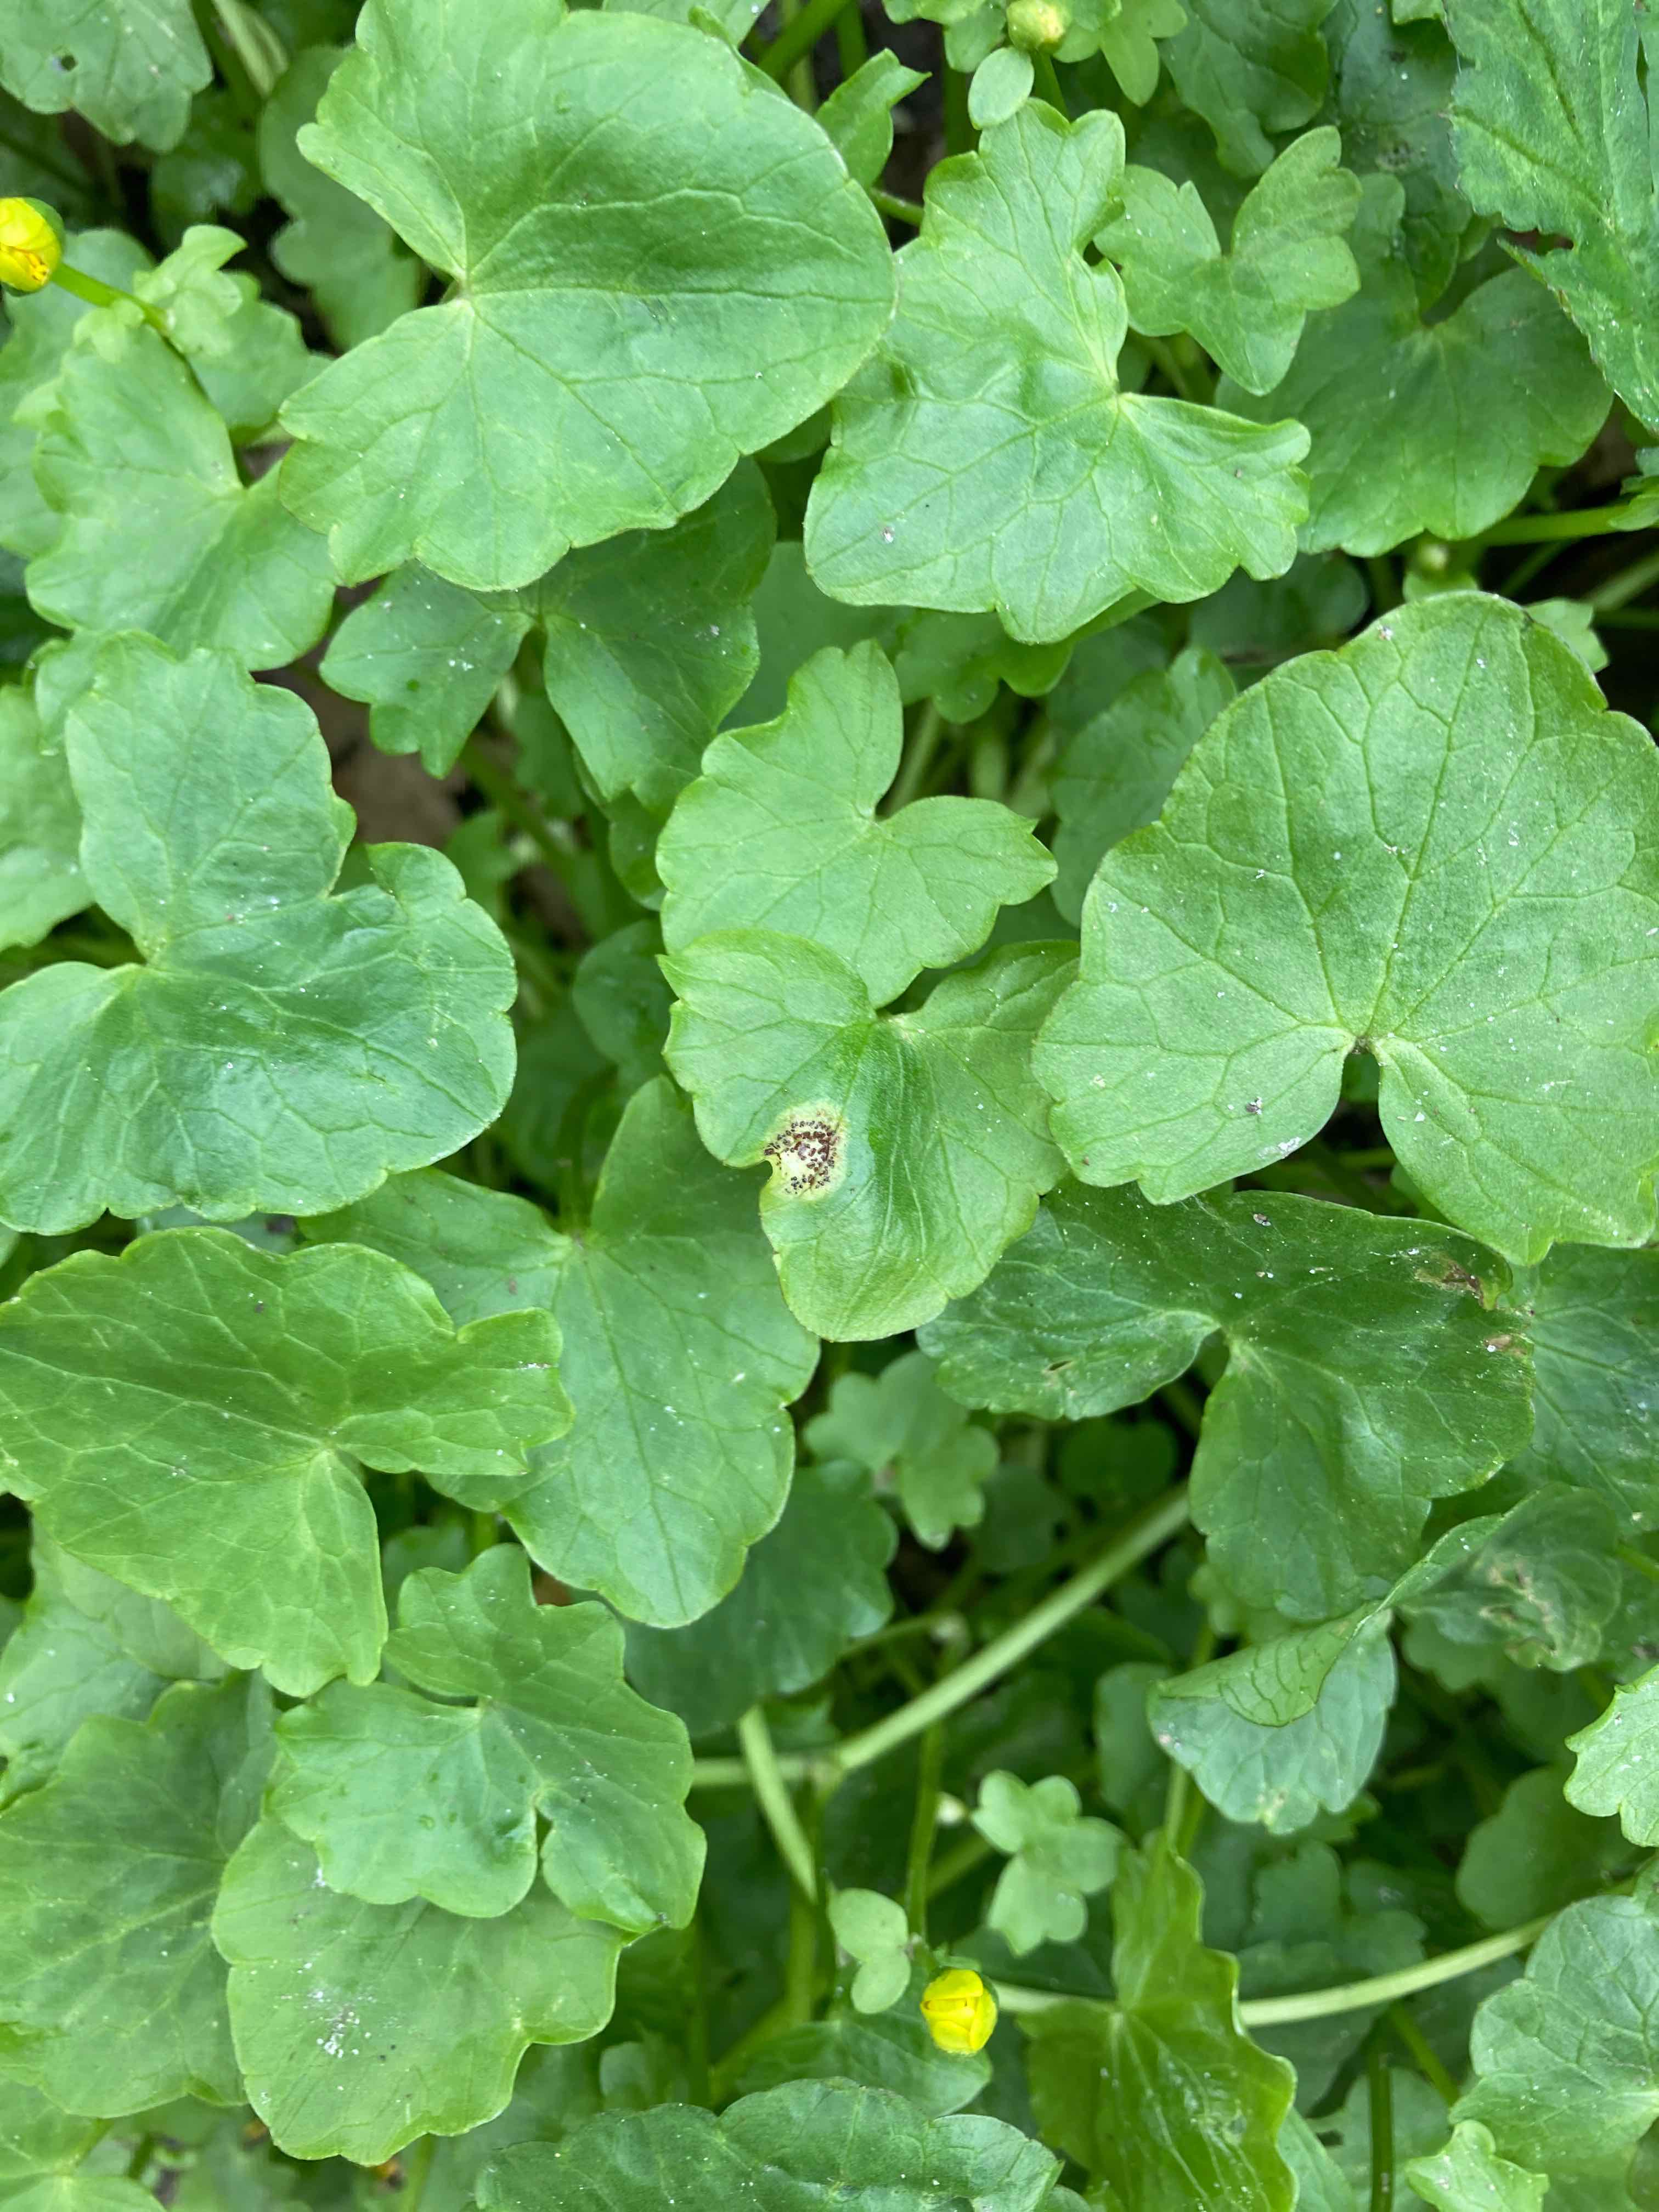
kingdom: Fungi
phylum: Basidiomycota
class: Pucciniomycetes
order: Pucciniales
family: Pucciniaceae
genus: Uromyces
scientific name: Uromyces ficariae
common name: vorterod-encellerust
